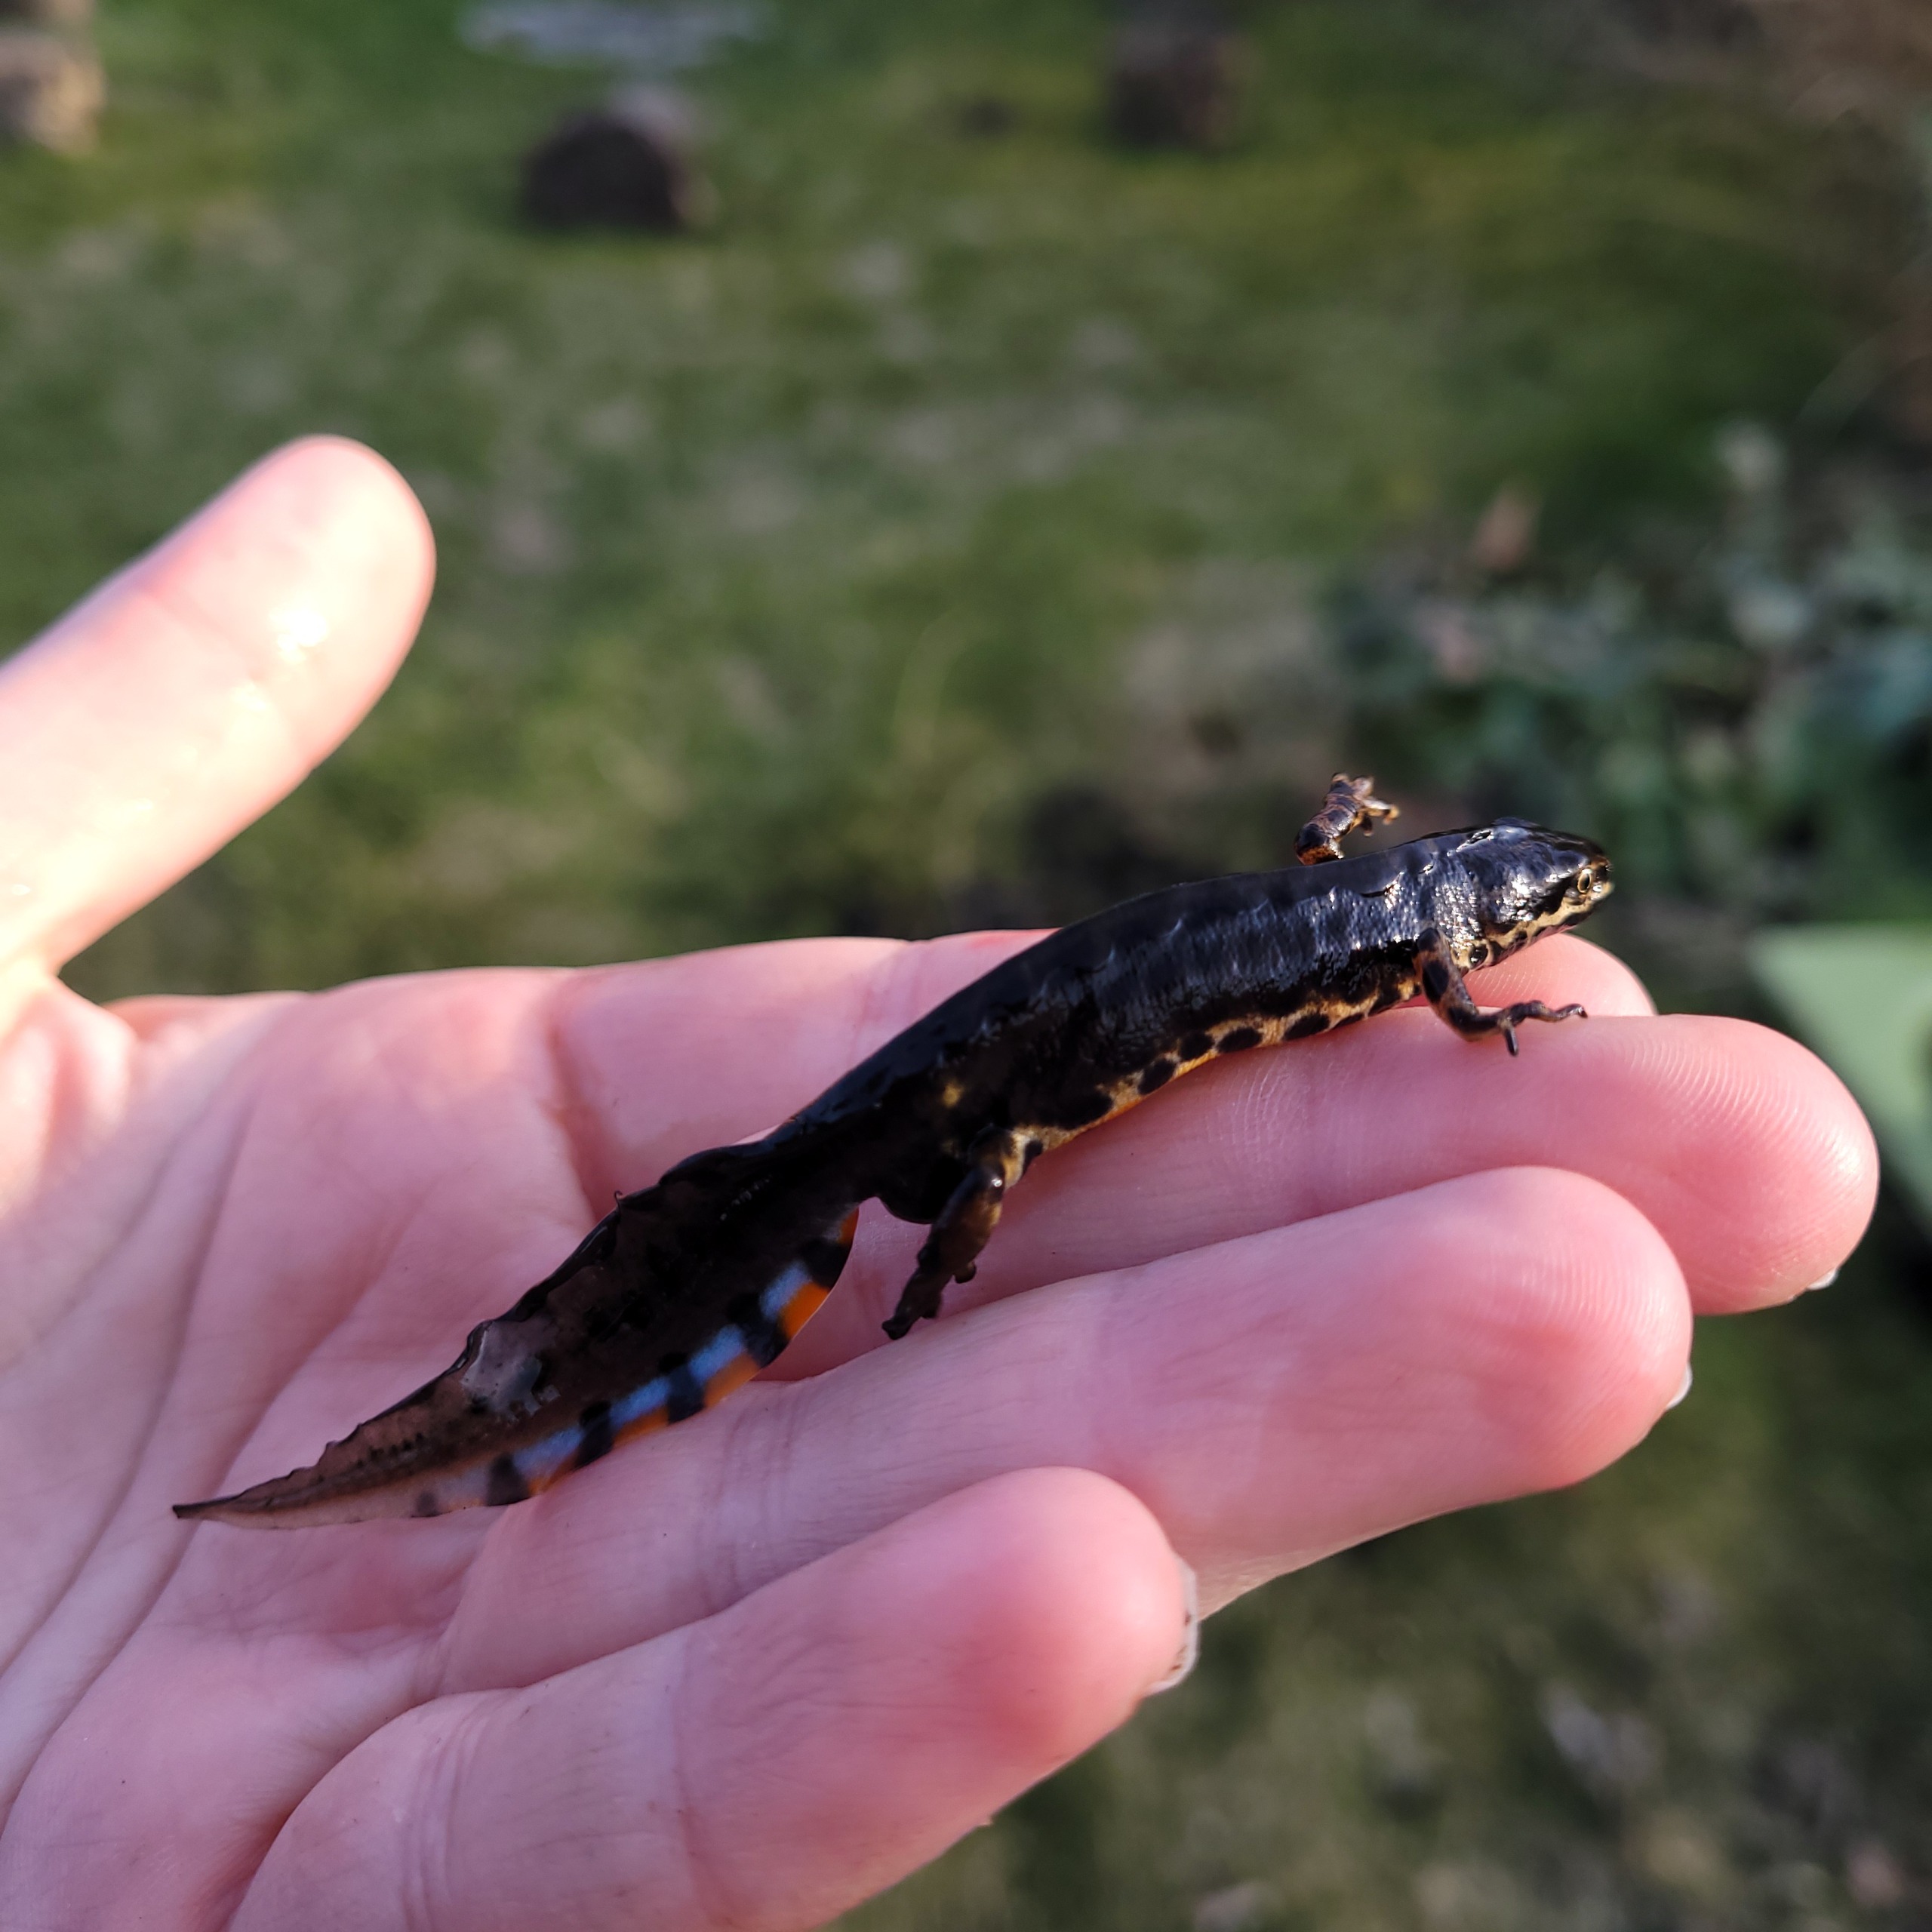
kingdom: Animalia
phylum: Chordata
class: Amphibia
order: Caudata
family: Salamandridae
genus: Lissotriton
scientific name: Lissotriton vulgaris
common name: Lille vandsalamander
